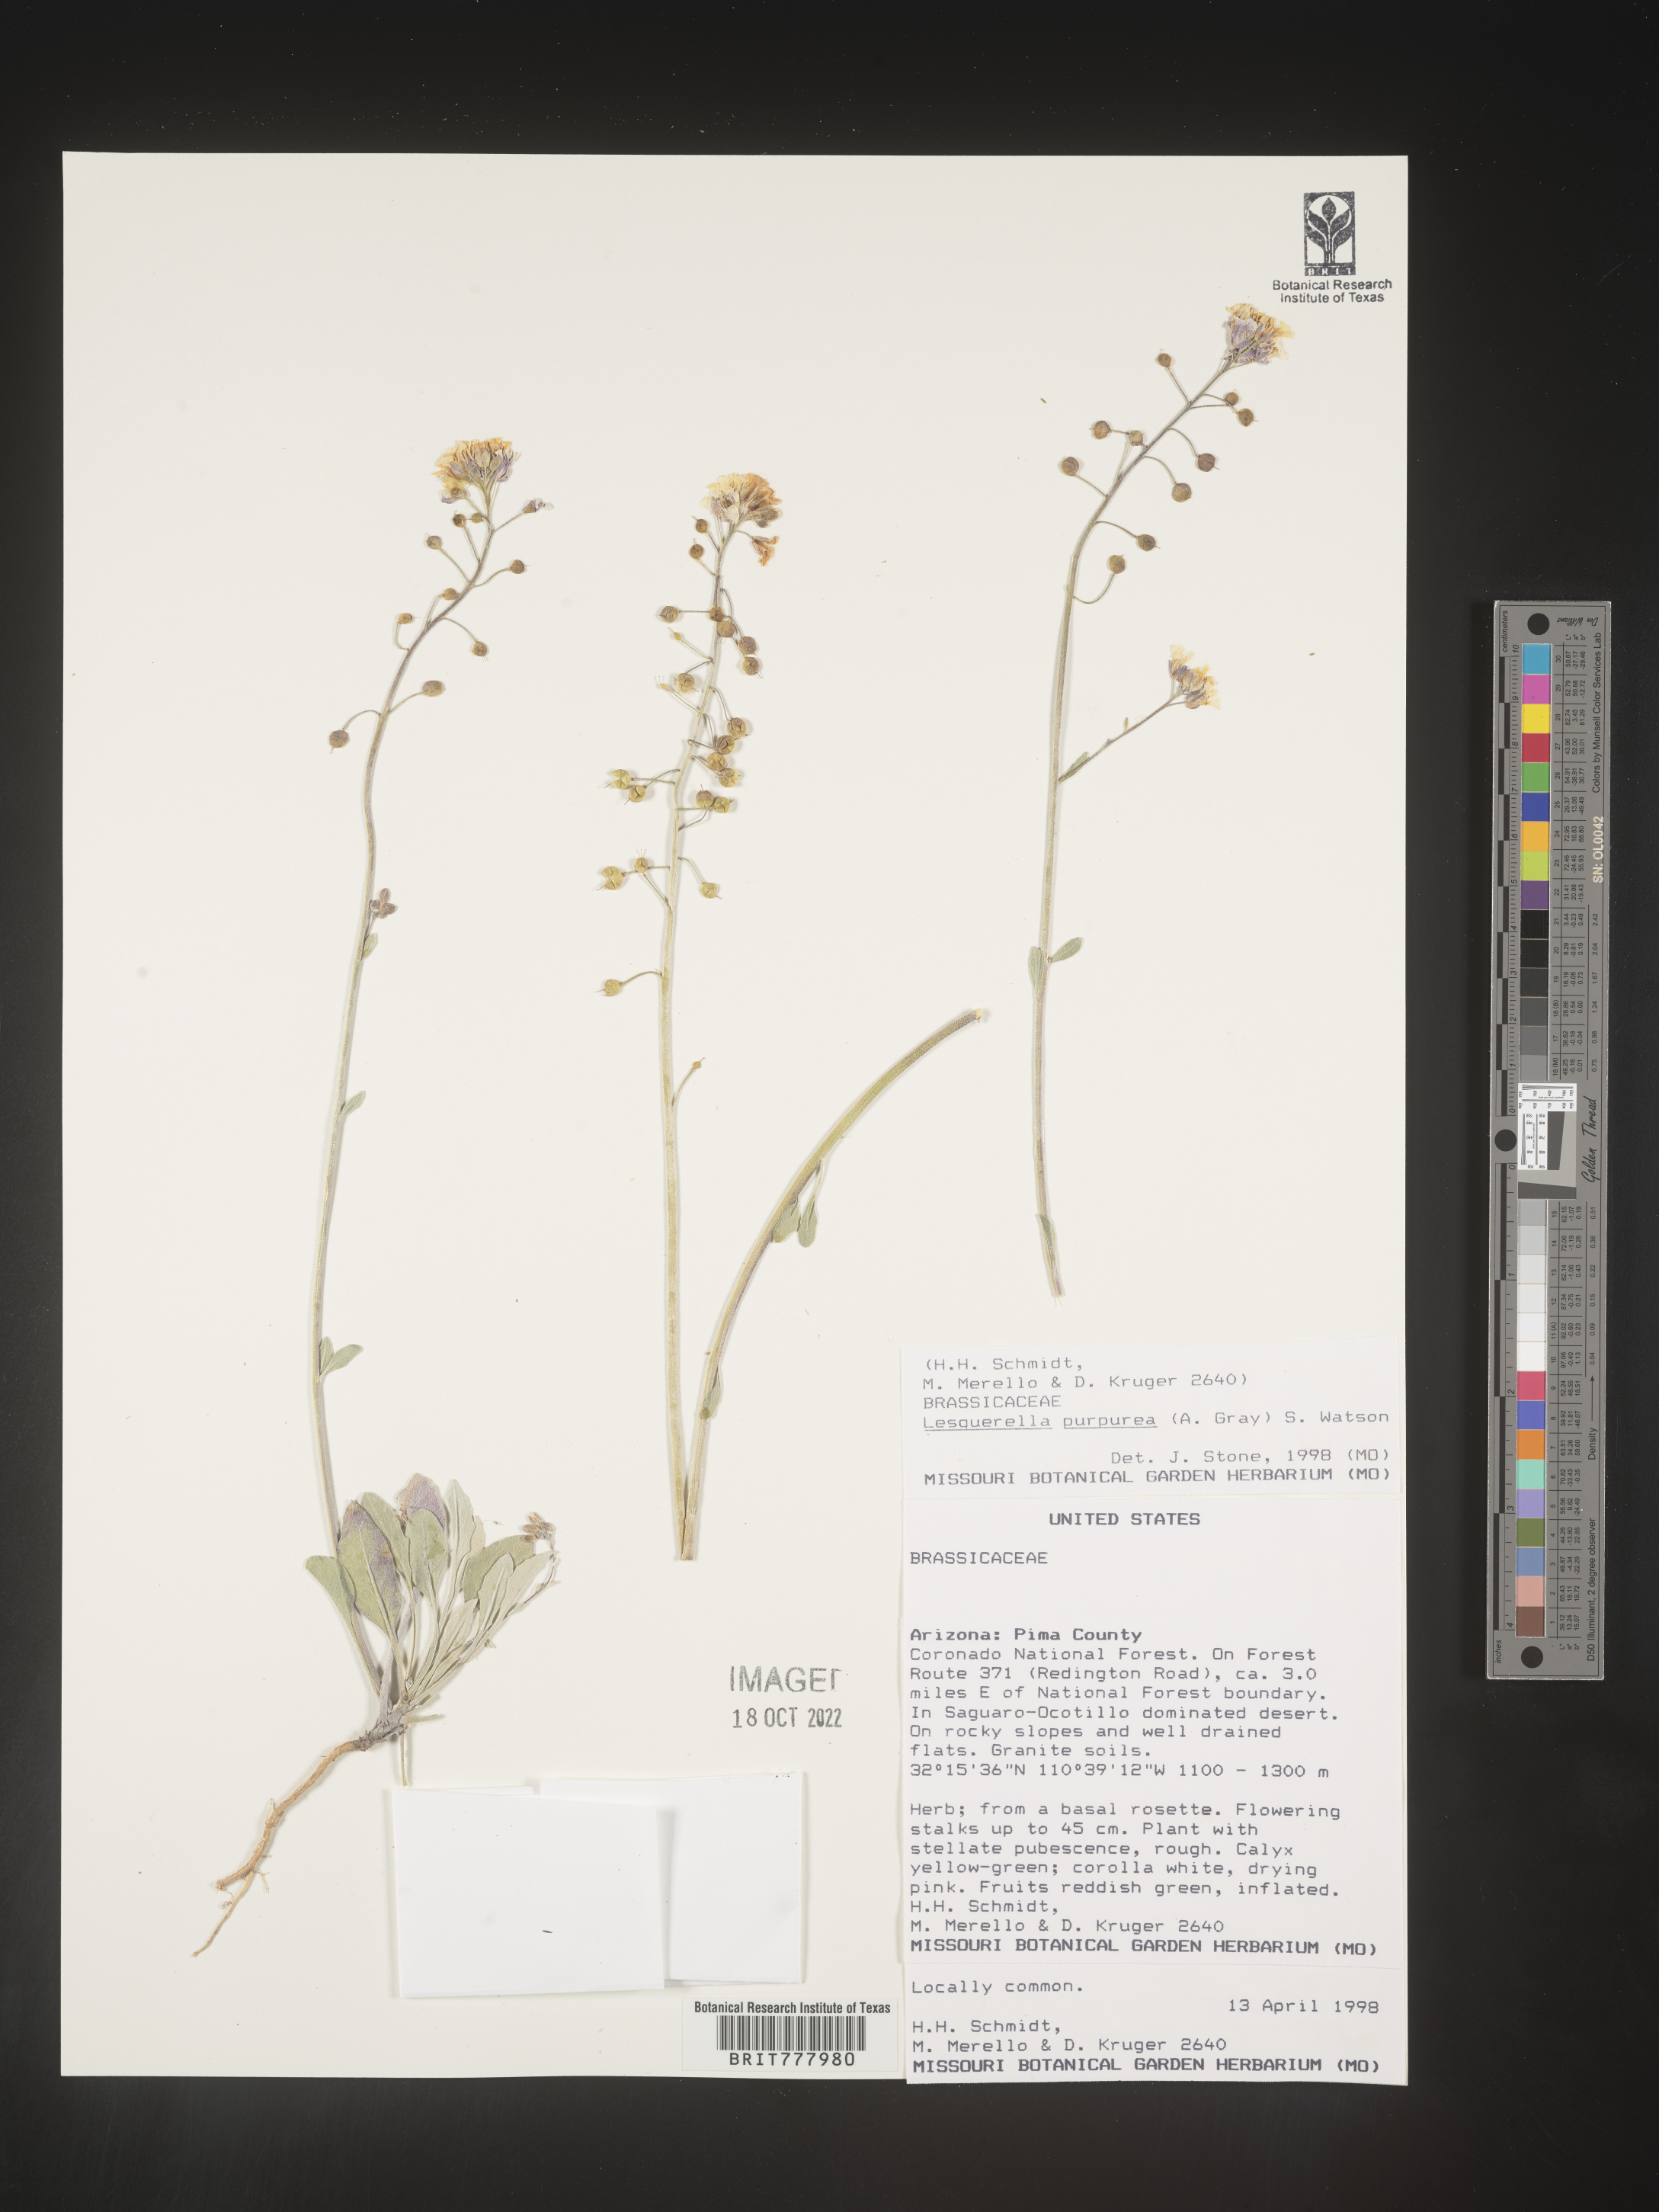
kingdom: Chromista
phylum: Cercozoa
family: Psammonobiotidae
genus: Lesquerella
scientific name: Lesquerella
